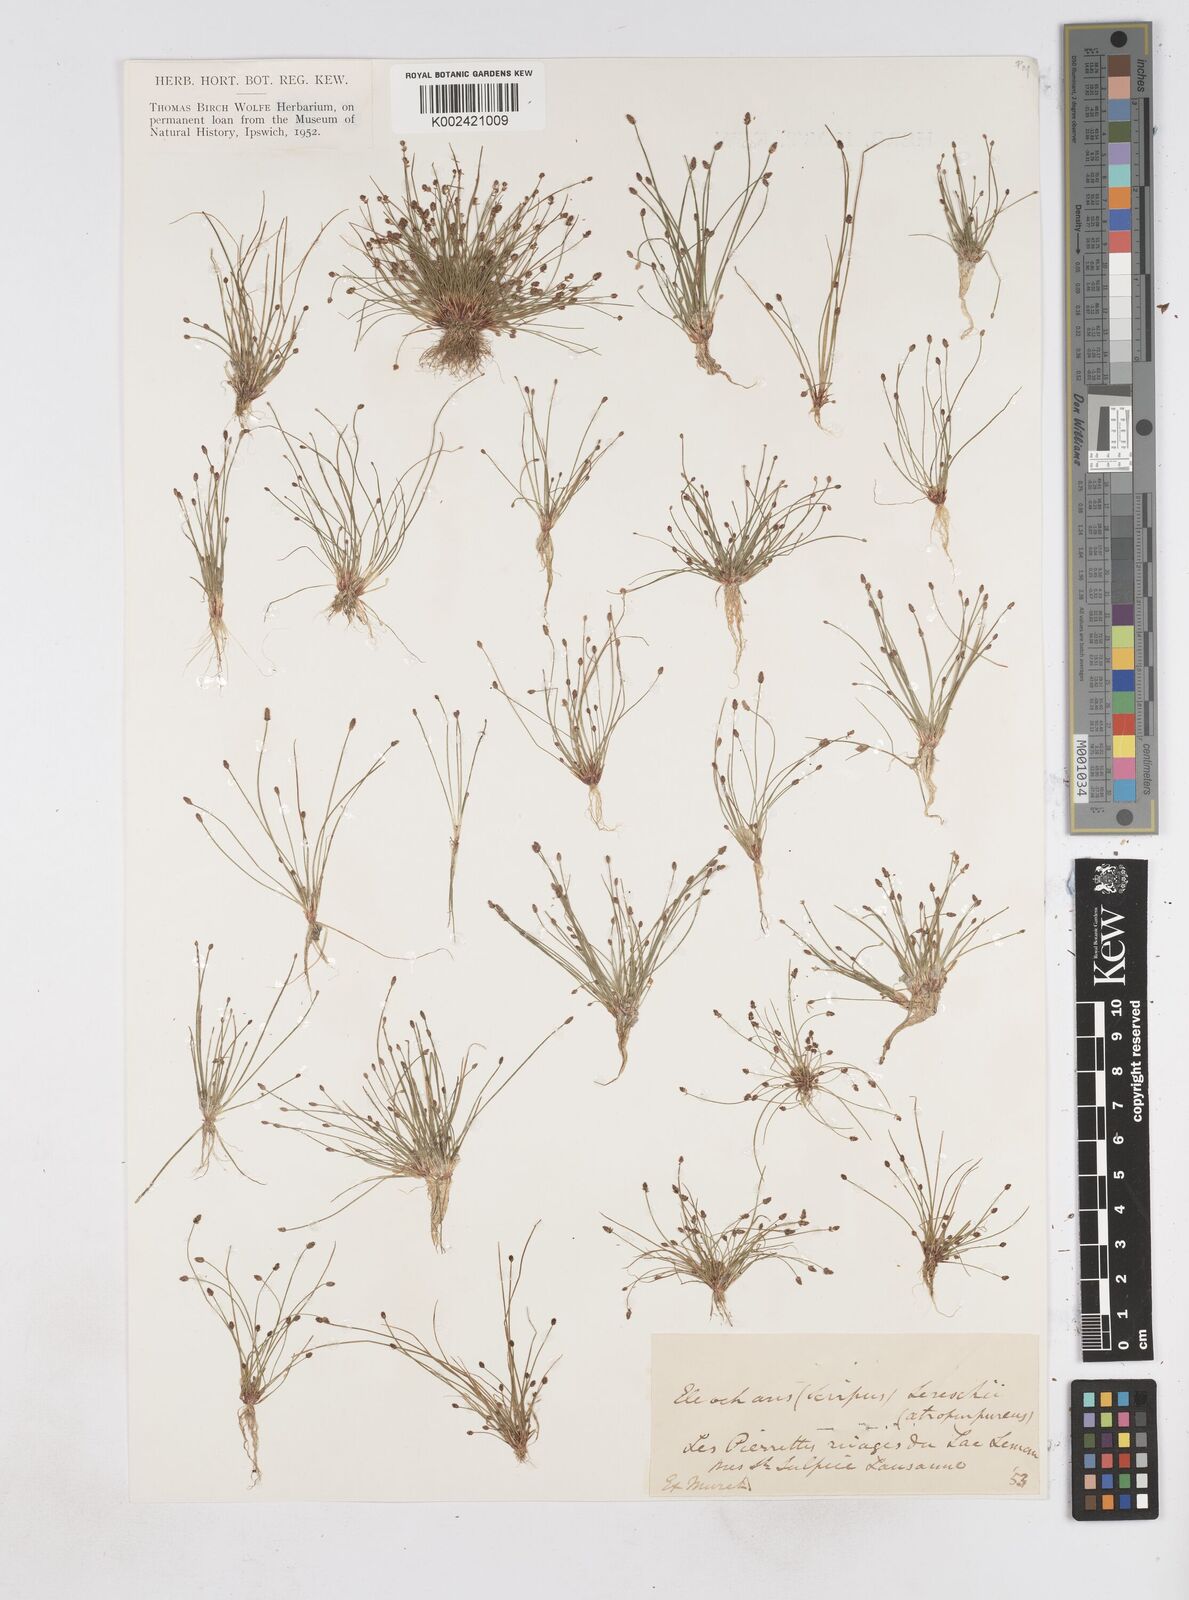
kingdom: Plantae
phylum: Tracheophyta
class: Liliopsida
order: Poales
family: Cyperaceae
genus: Eleocharis
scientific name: Eleocharis atropurpurea
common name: Purple spikerush
